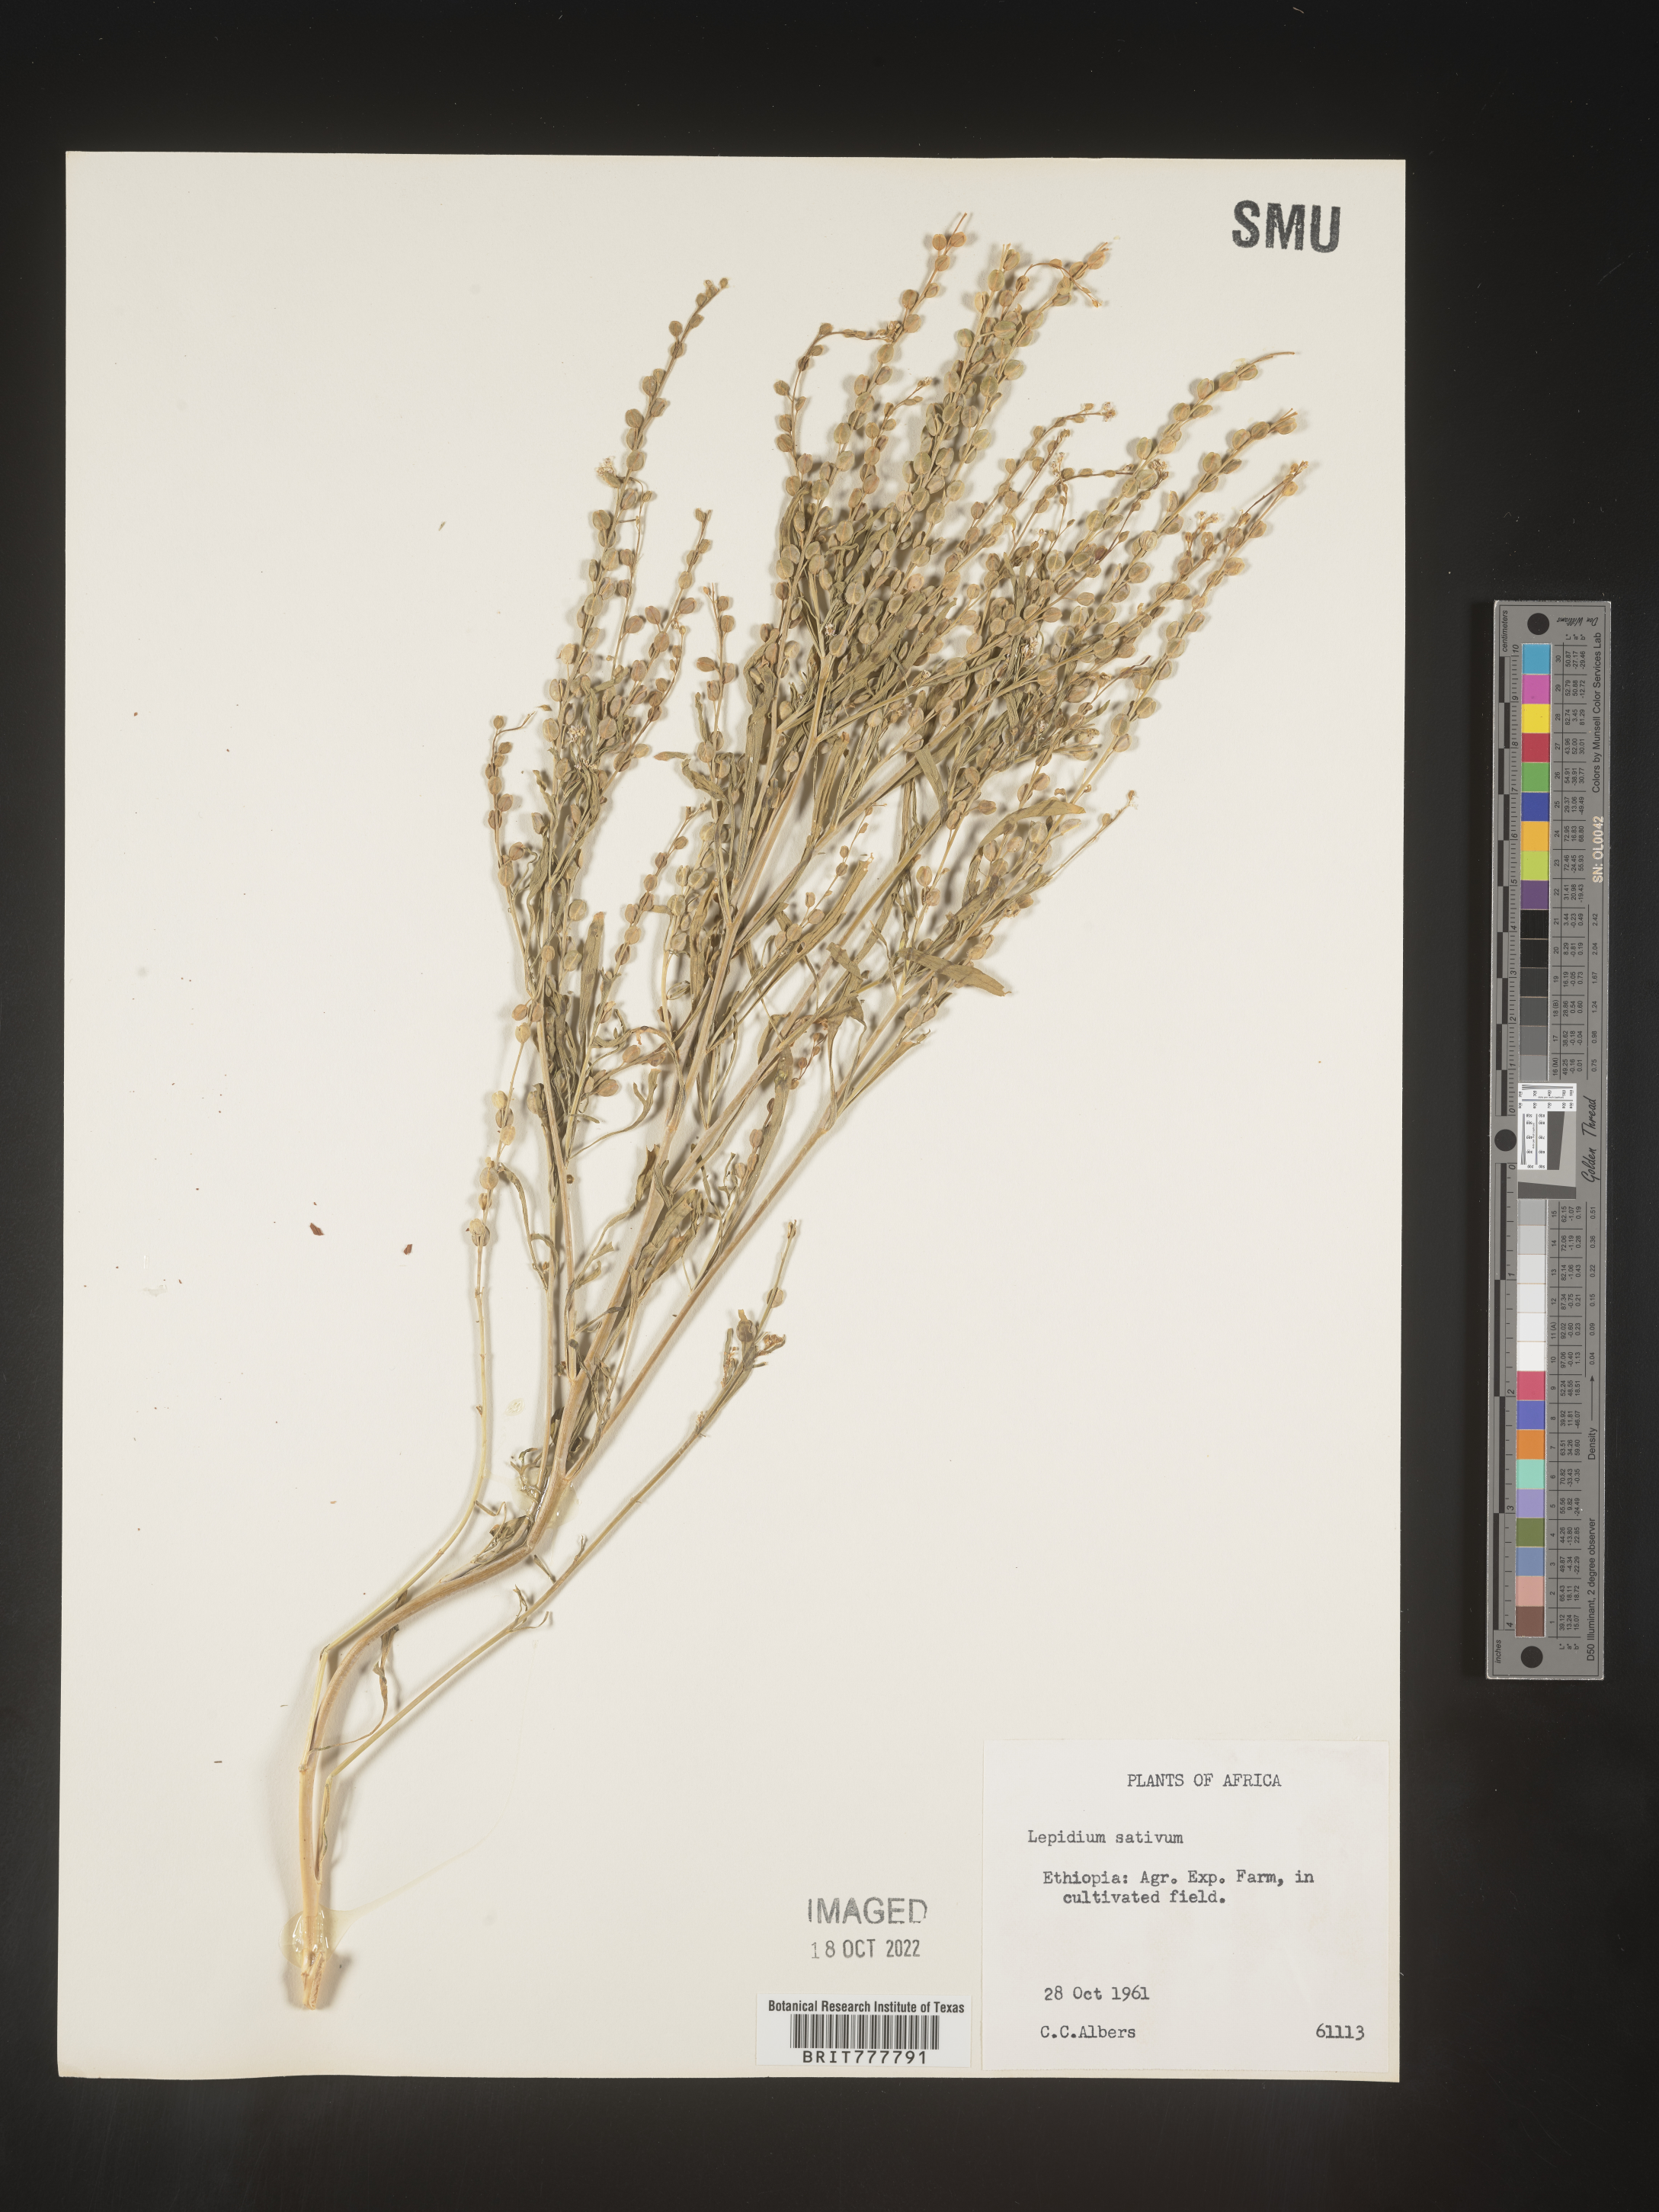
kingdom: Plantae
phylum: Tracheophyta
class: Magnoliopsida
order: Brassicales
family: Brassicaceae
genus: Lepidium
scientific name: Lepidium
